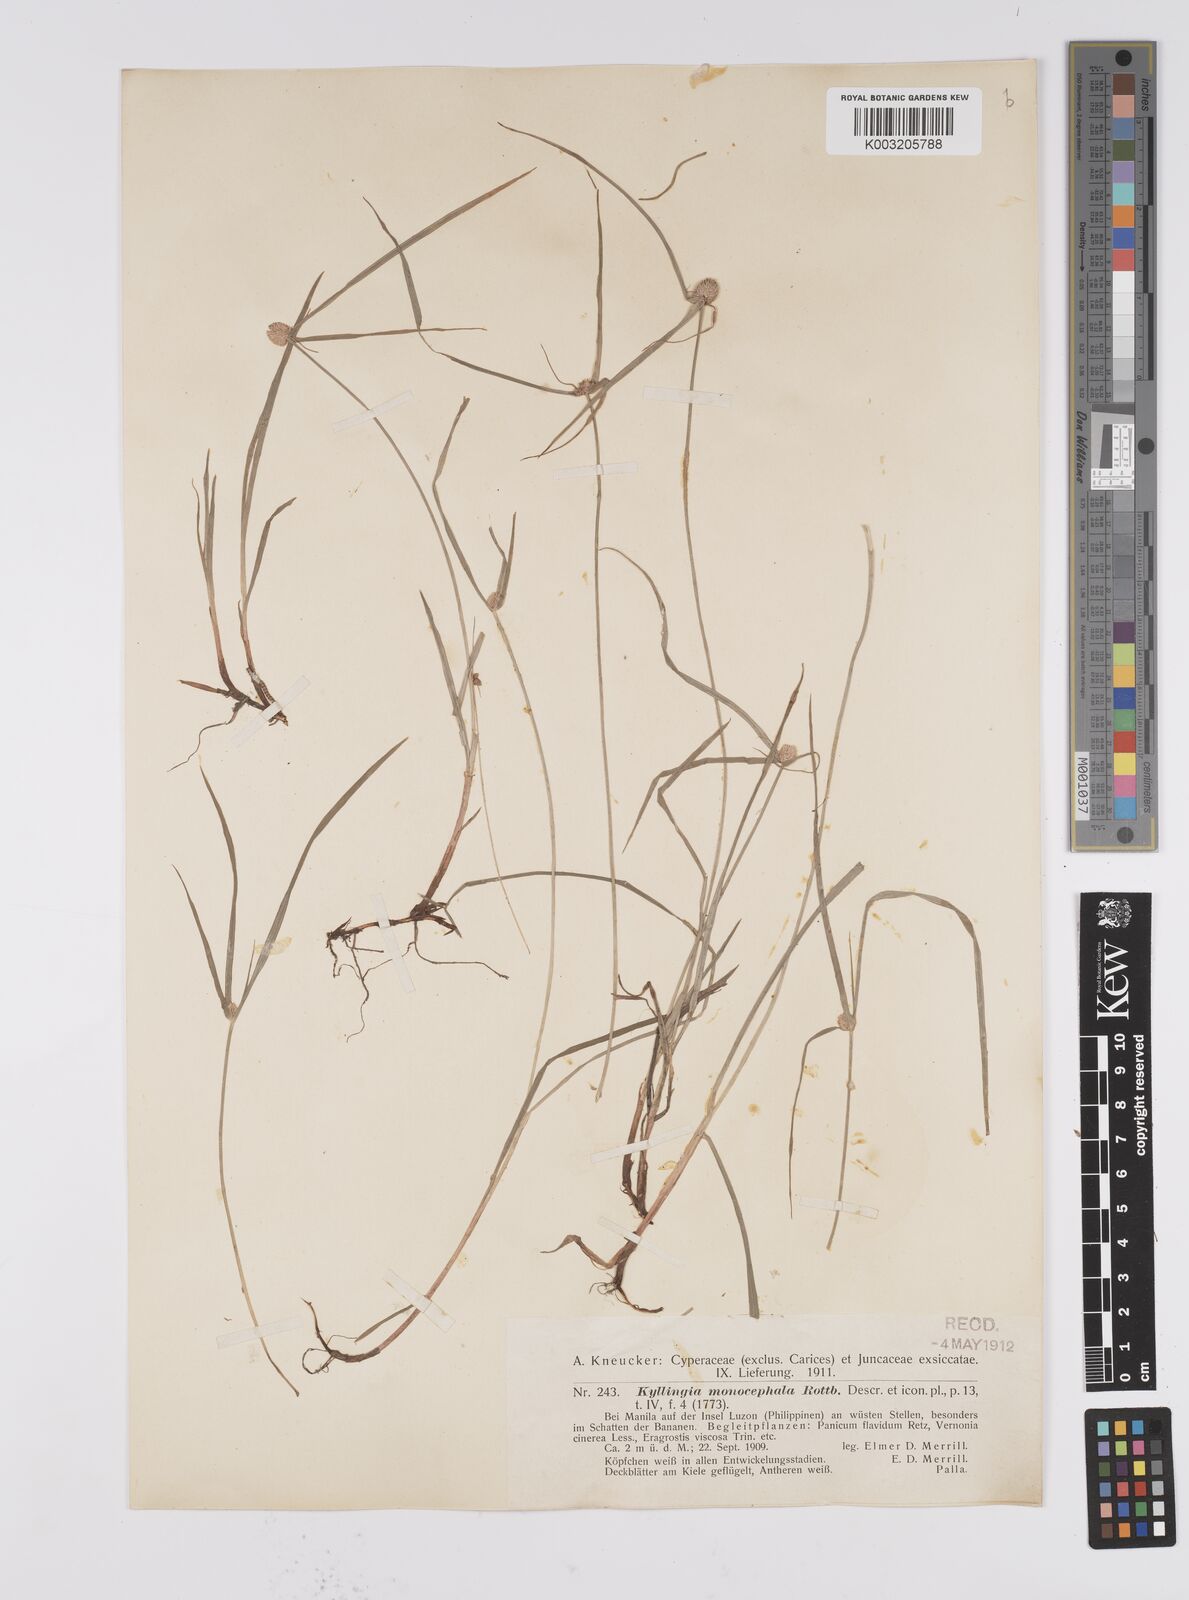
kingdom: Plantae
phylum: Tracheophyta
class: Liliopsida
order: Poales
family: Cyperaceae
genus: Cyperus
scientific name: Cyperus nemoralis
